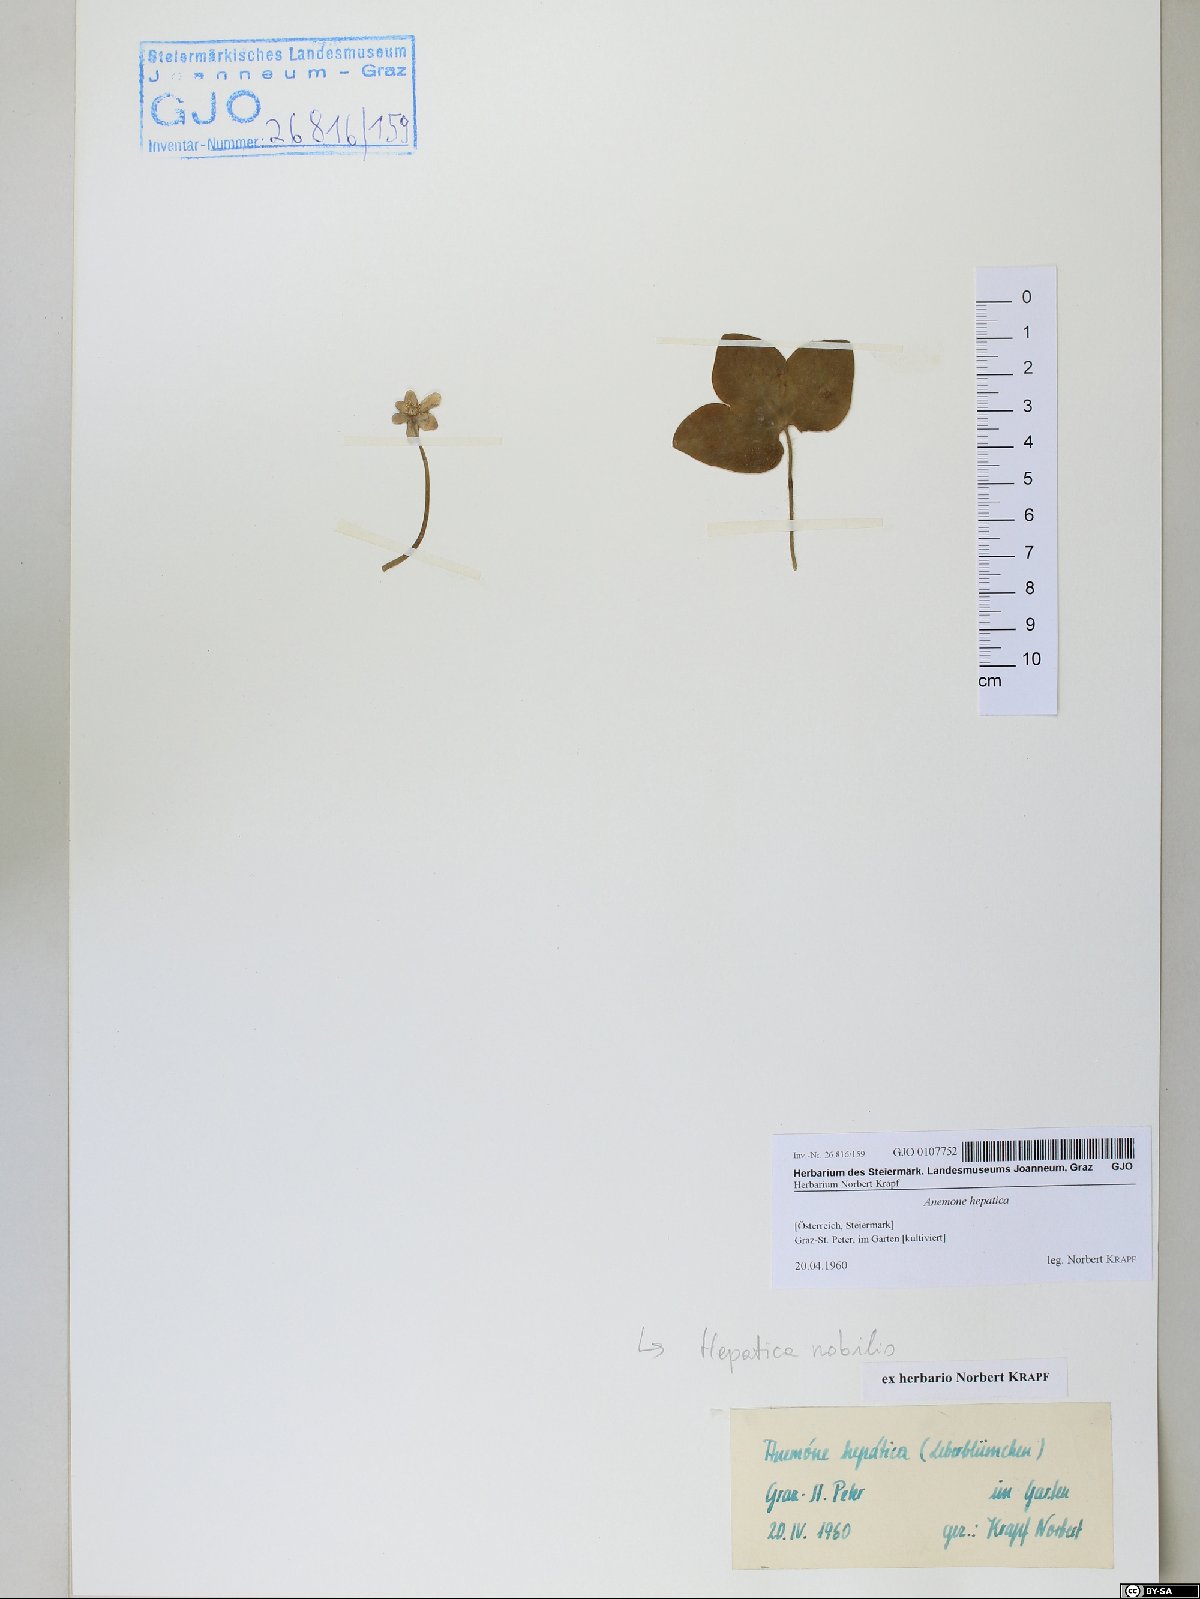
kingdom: Plantae
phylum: Tracheophyta
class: Magnoliopsida
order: Ranunculales
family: Ranunculaceae
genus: Hepatica
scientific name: Hepatica nobilis
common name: Liverleaf
